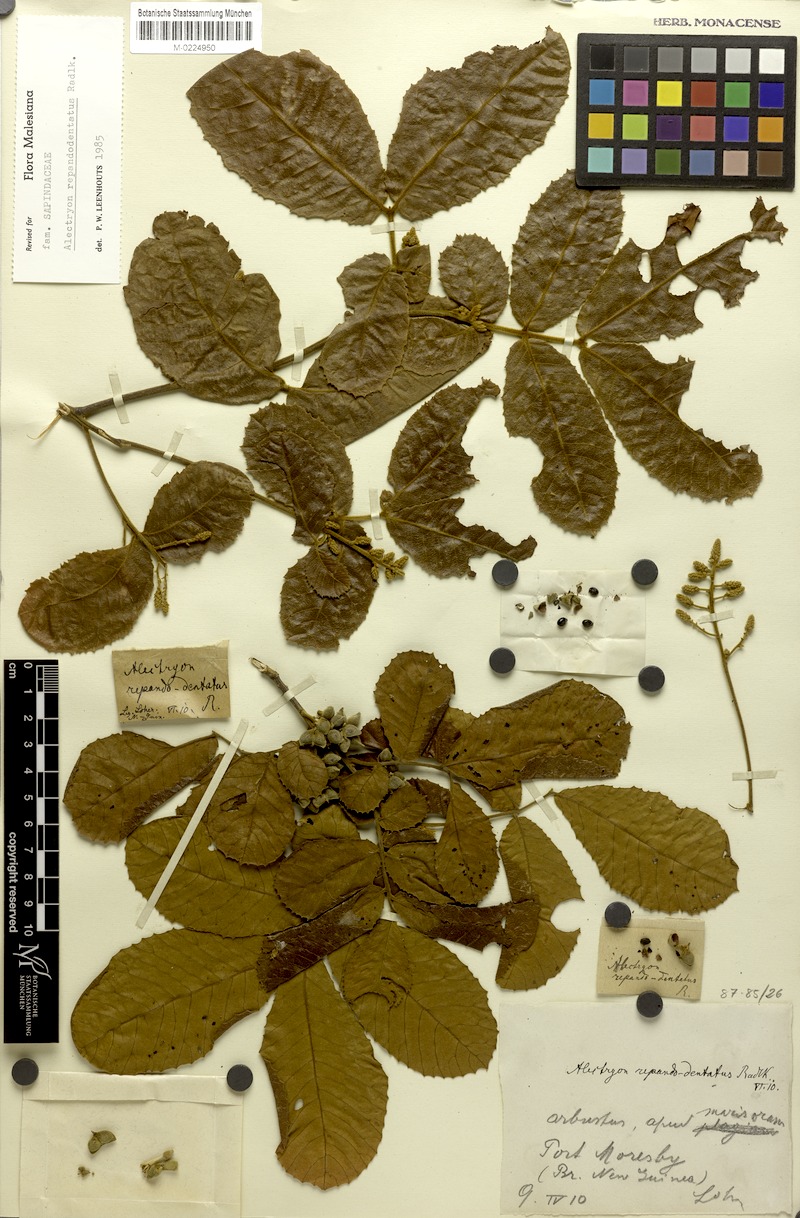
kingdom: Plantae
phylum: Tracheophyta
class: Magnoliopsida
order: Sapindales
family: Sapindaceae
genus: Alectryon
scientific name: Alectryon repandodentatus
